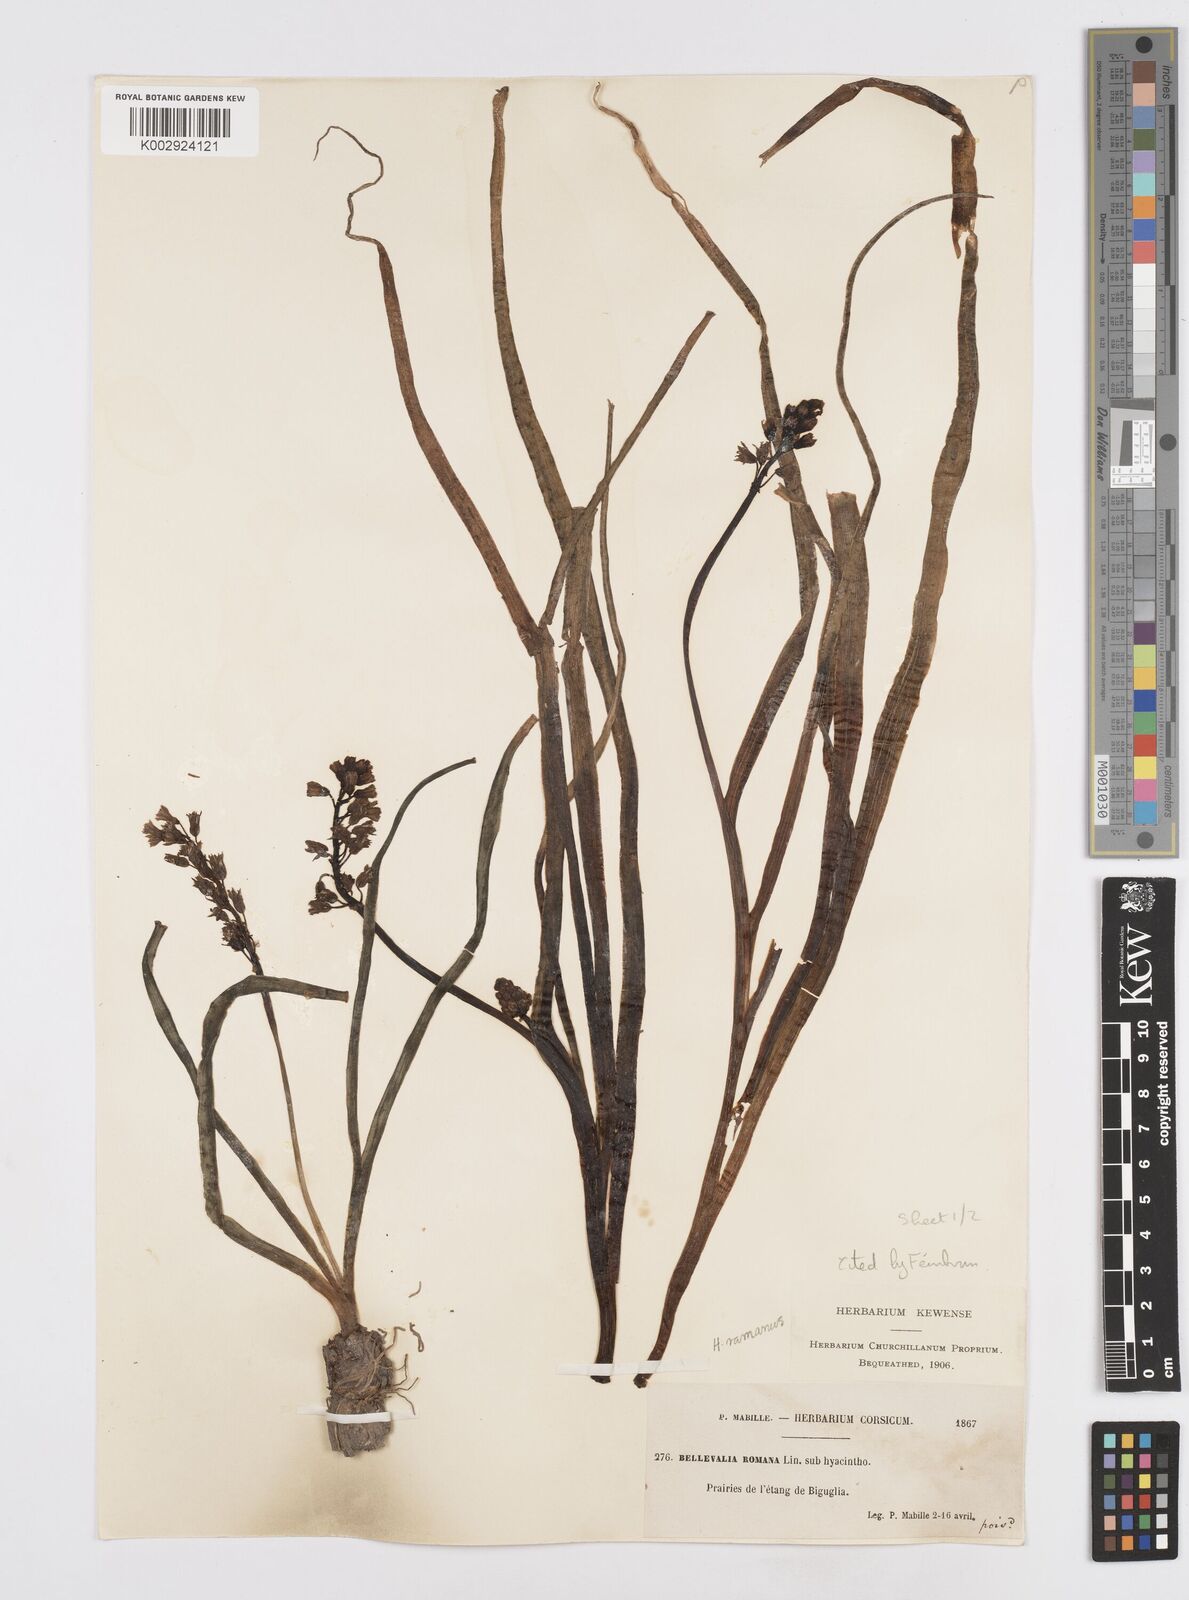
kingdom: Plantae
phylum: Tracheophyta
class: Liliopsida
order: Asparagales
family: Asparagaceae
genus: Bellevalia
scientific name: Bellevalia
